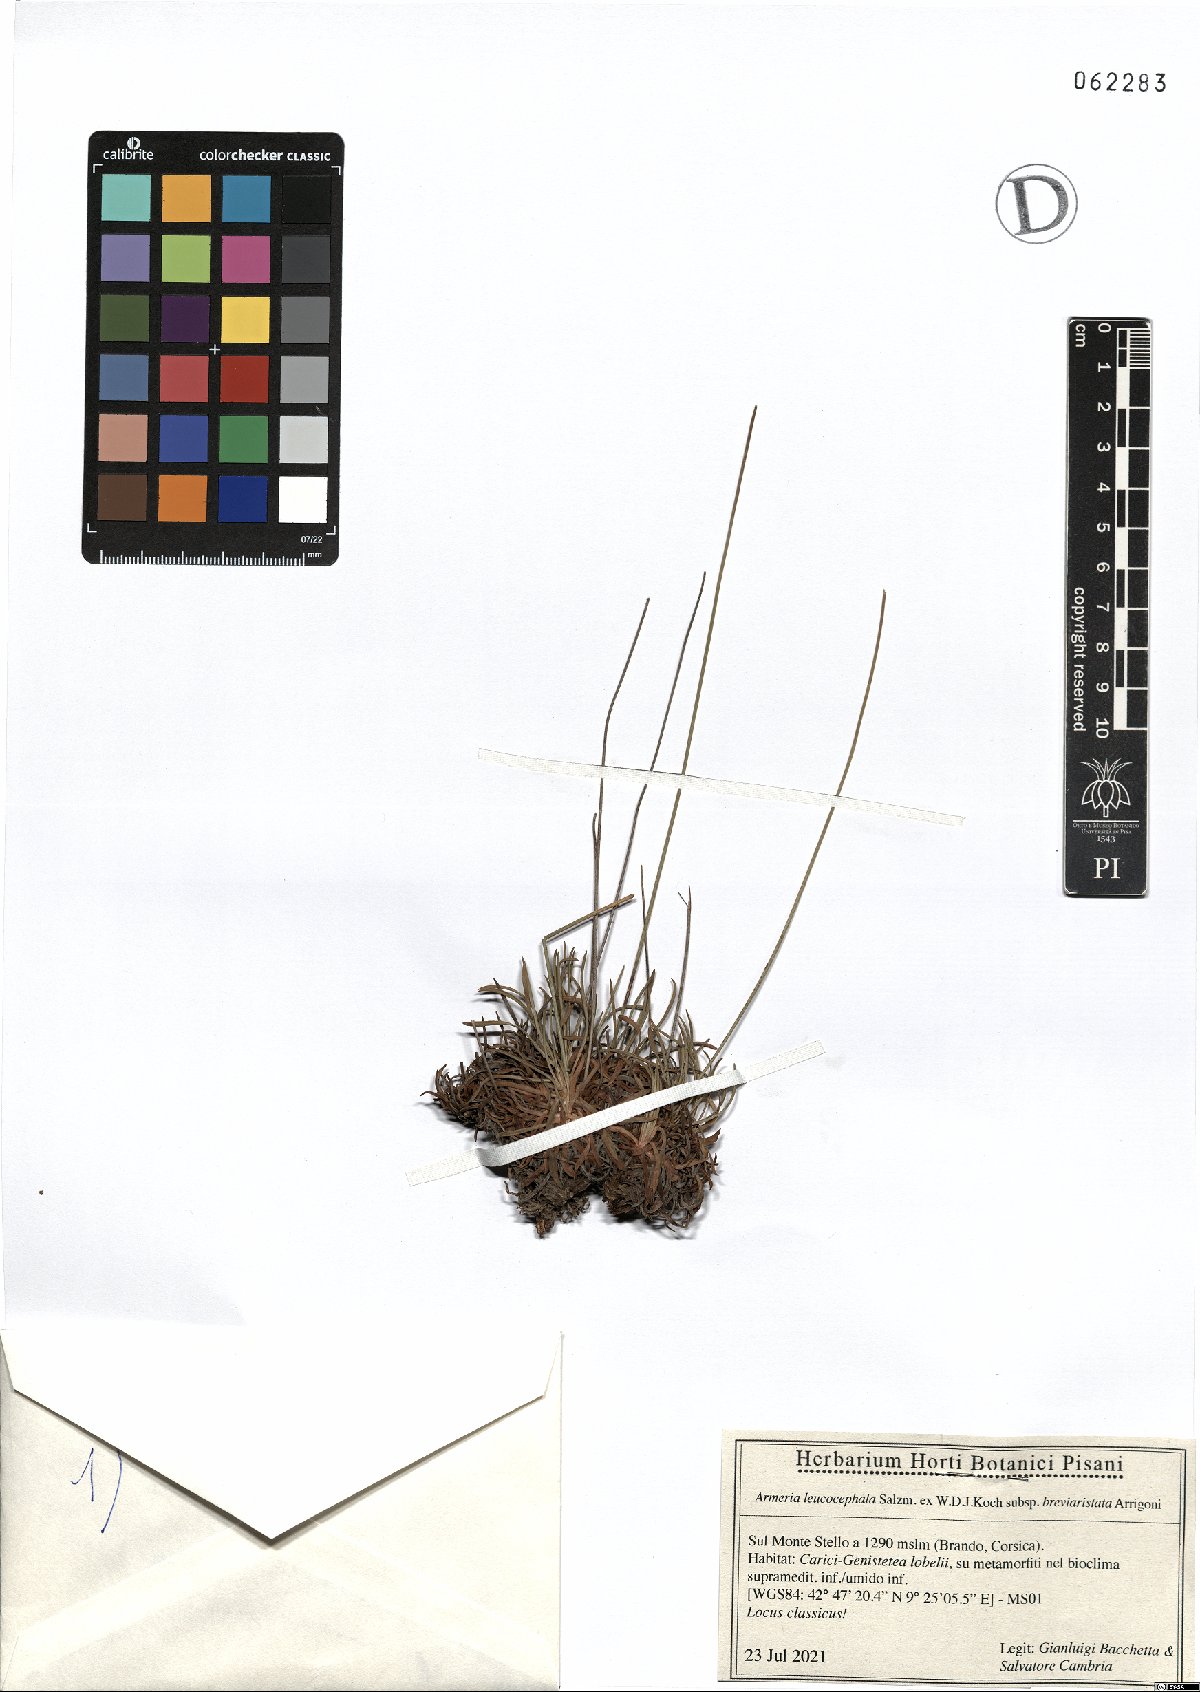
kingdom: Plantae
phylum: Tracheophyta
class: Magnoliopsida
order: Caryophyllales
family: Plumbaginaceae
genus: Armeria
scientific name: Armeria leucocephala
